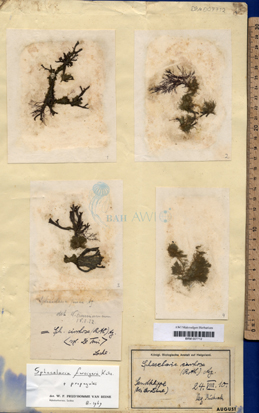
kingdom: Chromista
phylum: Ochrophyta
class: Phaeophyceae
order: Sphacelariales
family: Sphacelariaceae
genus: Sphacelaria
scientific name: Sphacelaria rigidula
